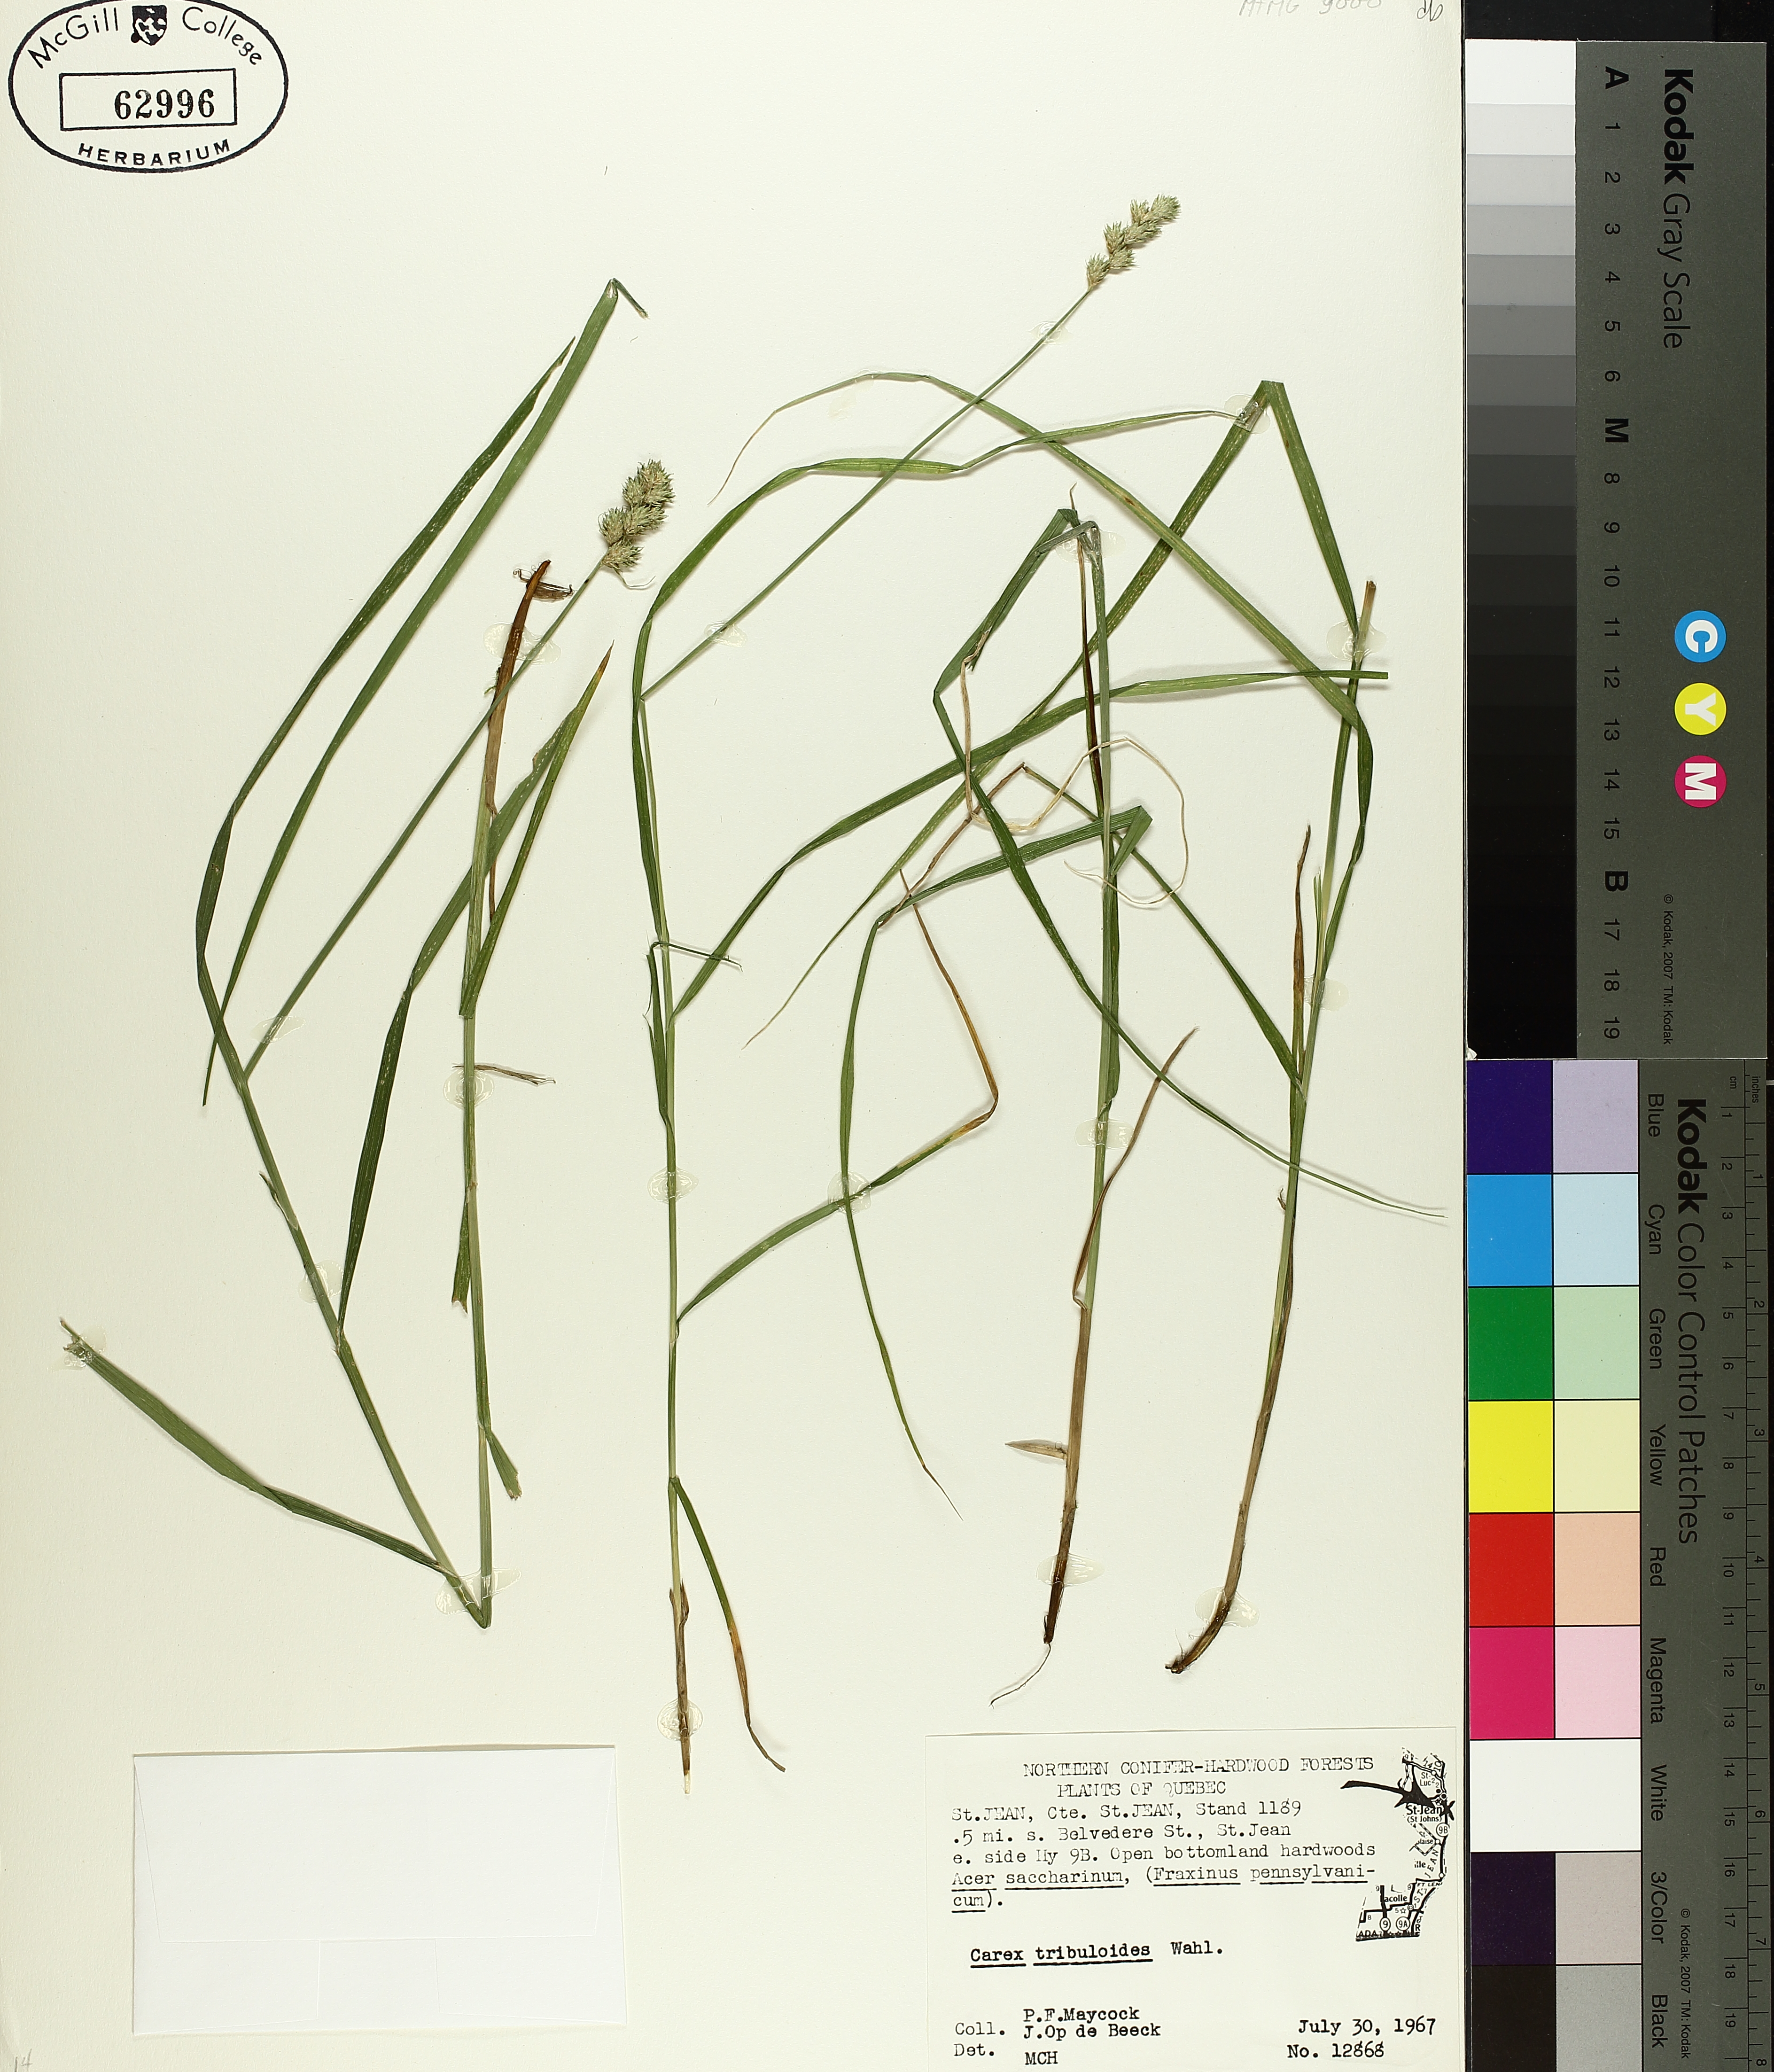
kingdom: Plantae
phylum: Tracheophyta
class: Liliopsida
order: Poales
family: Cyperaceae
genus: Carex
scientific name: Carex tribuloides
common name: Blunt broom sedge
